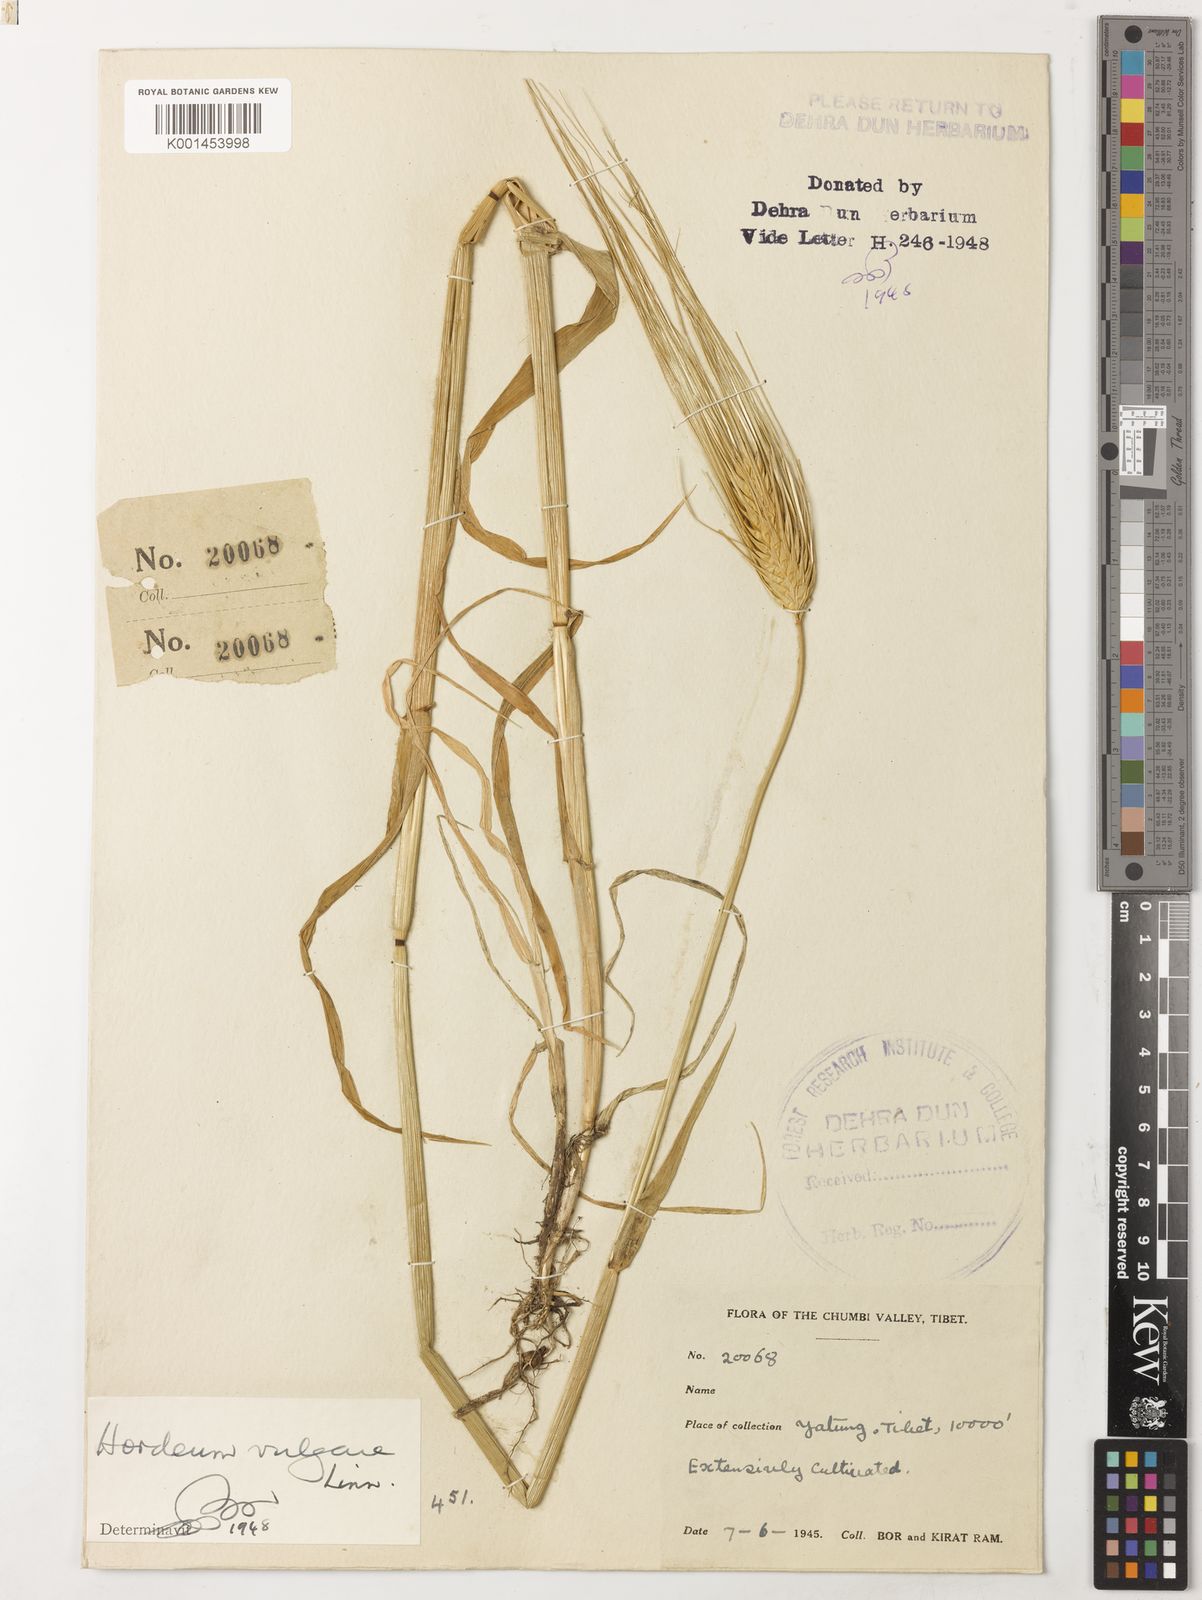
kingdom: Plantae
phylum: Tracheophyta
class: Liliopsida
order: Poales
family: Poaceae
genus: Hordeum
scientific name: Hordeum vulgare
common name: Common barley
